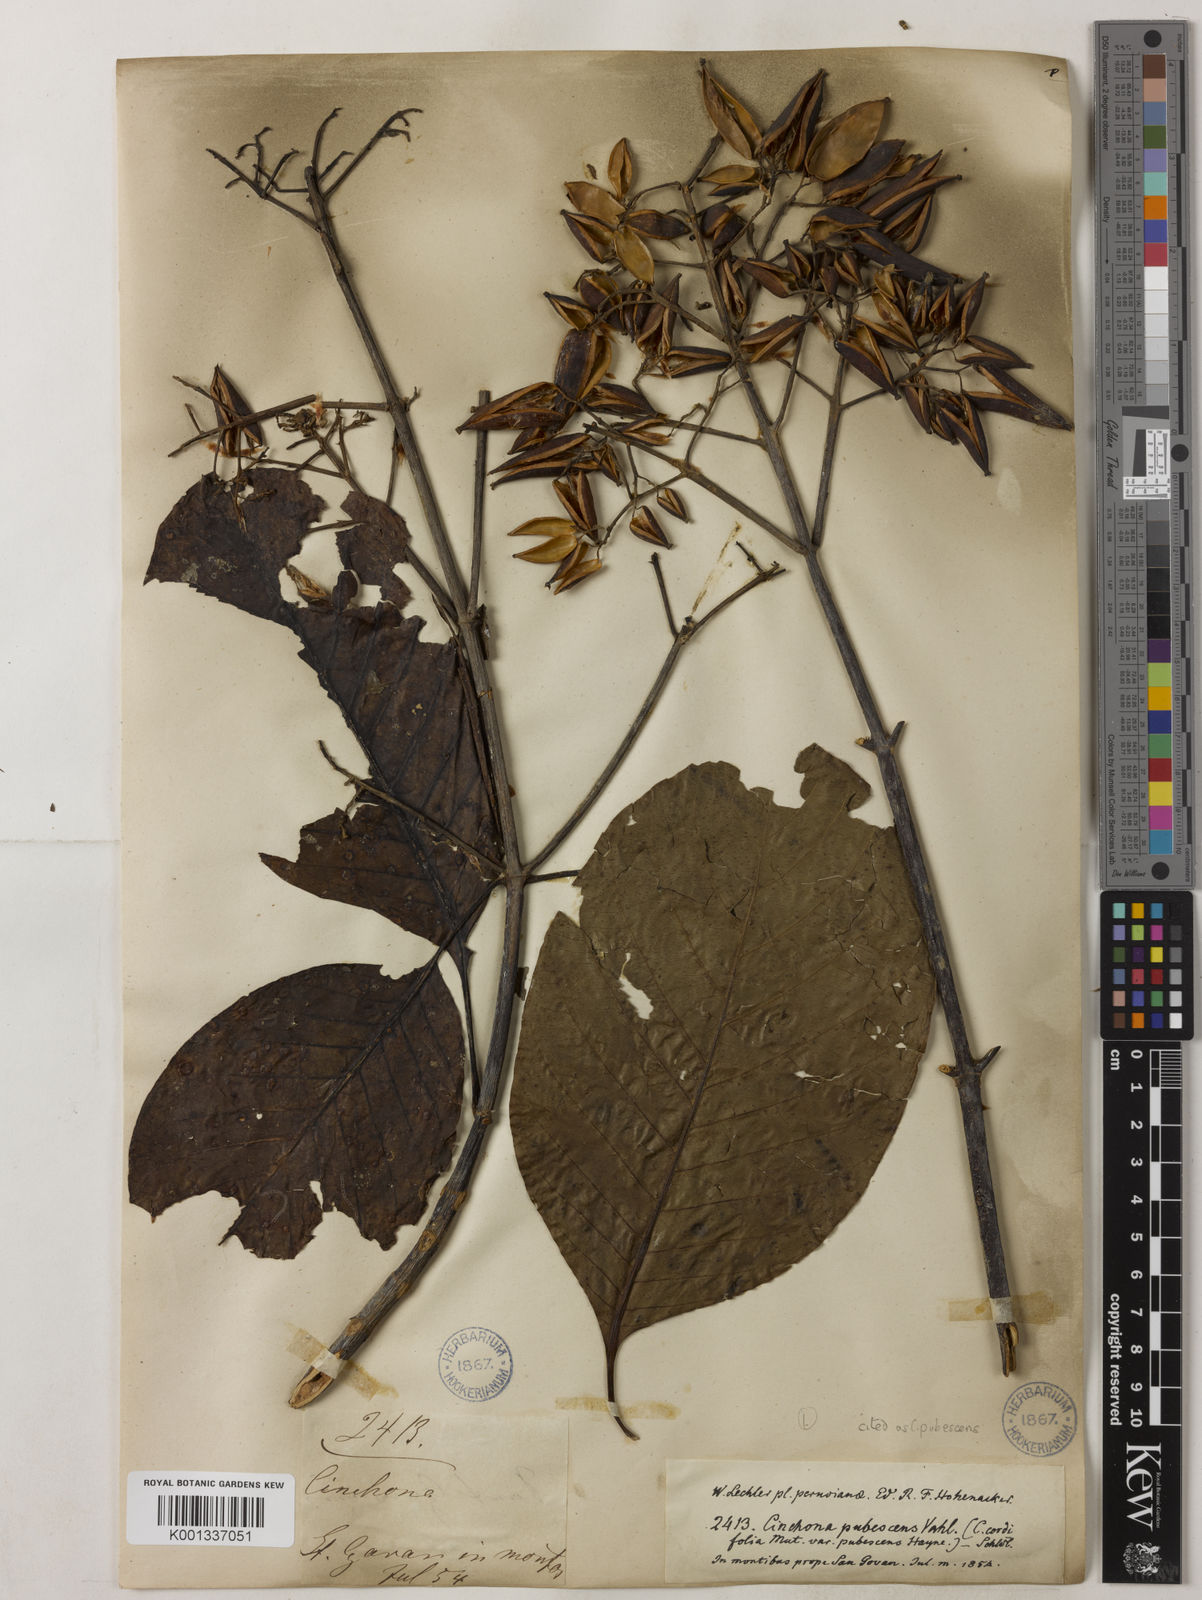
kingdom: Plantae
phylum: Tracheophyta
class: Magnoliopsida
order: Gentianales
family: Rubiaceae
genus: Cinchona
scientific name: Cinchona pubescens
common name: Quinine
